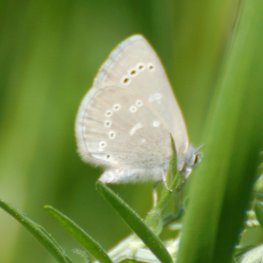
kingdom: Animalia
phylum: Arthropoda
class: Insecta
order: Lepidoptera
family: Lycaenidae
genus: Glaucopsyche
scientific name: Glaucopsyche lygdamus
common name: Silvery Blue
